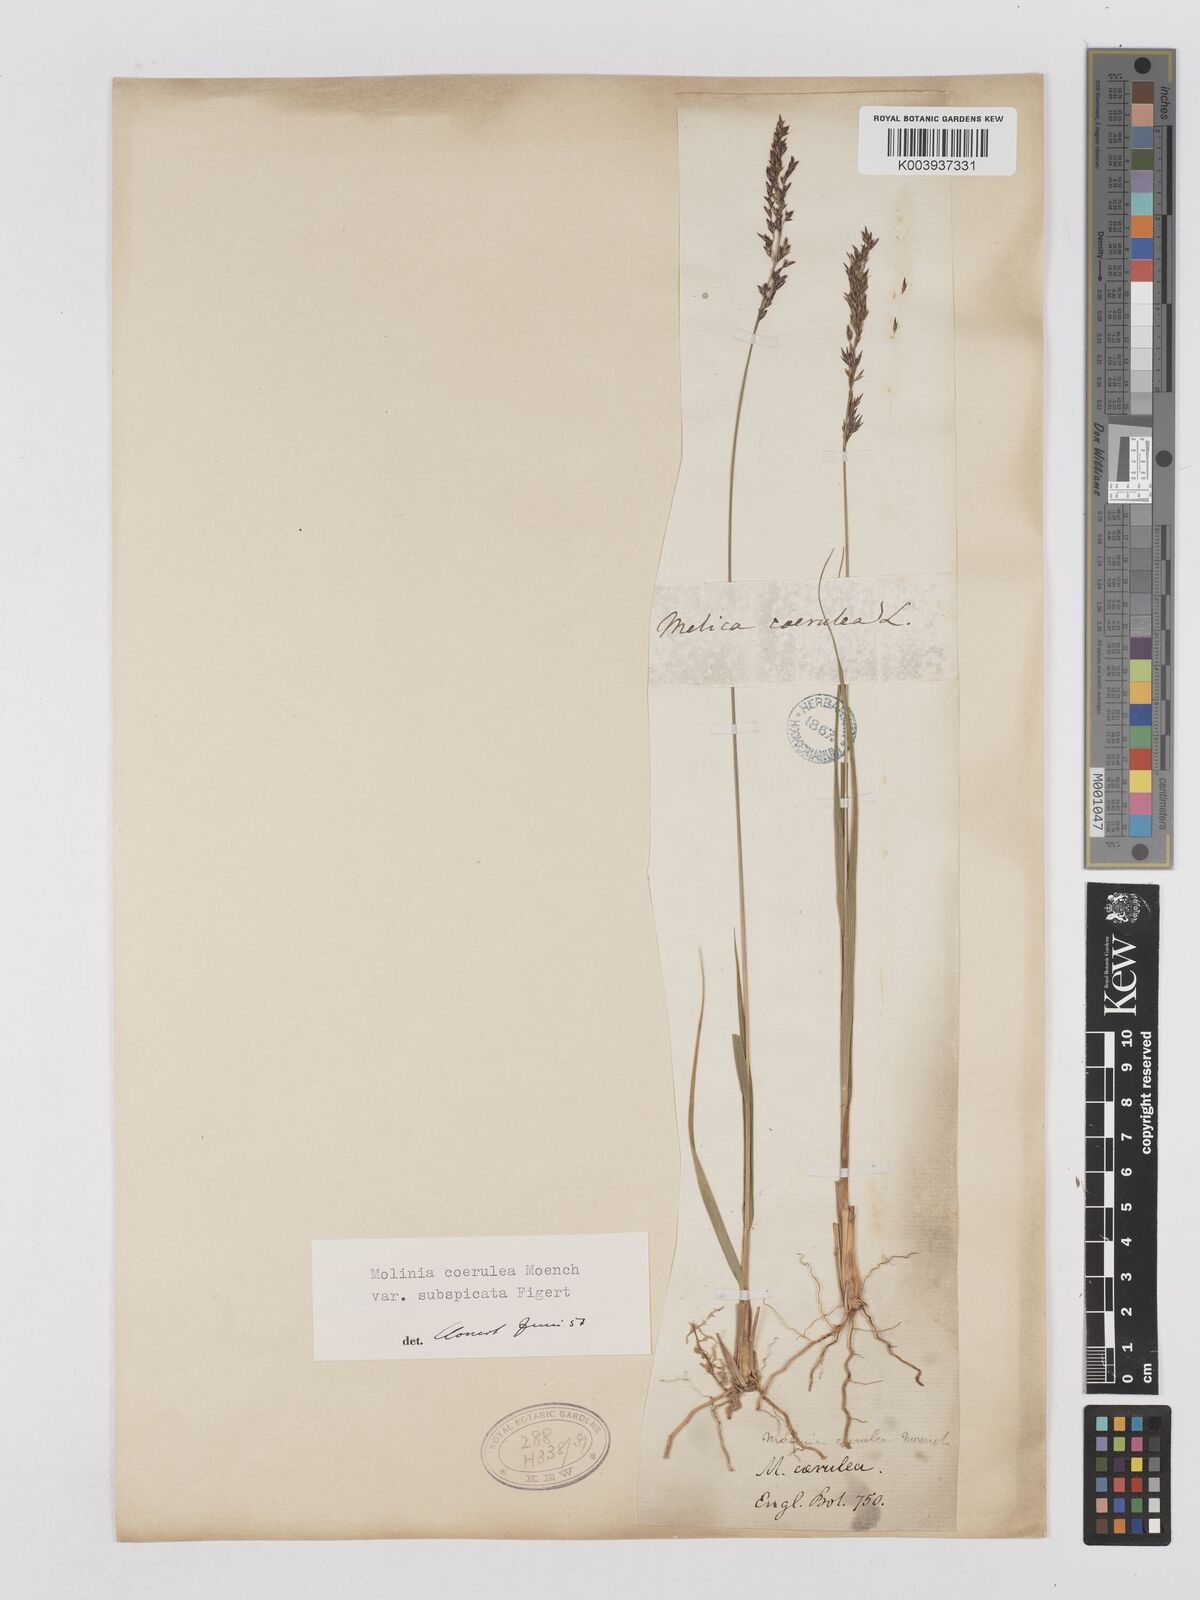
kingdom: Plantae
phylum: Tracheophyta
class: Liliopsida
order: Poales
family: Poaceae
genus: Molinia
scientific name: Molinia caerulea
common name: Purple moor-grass
